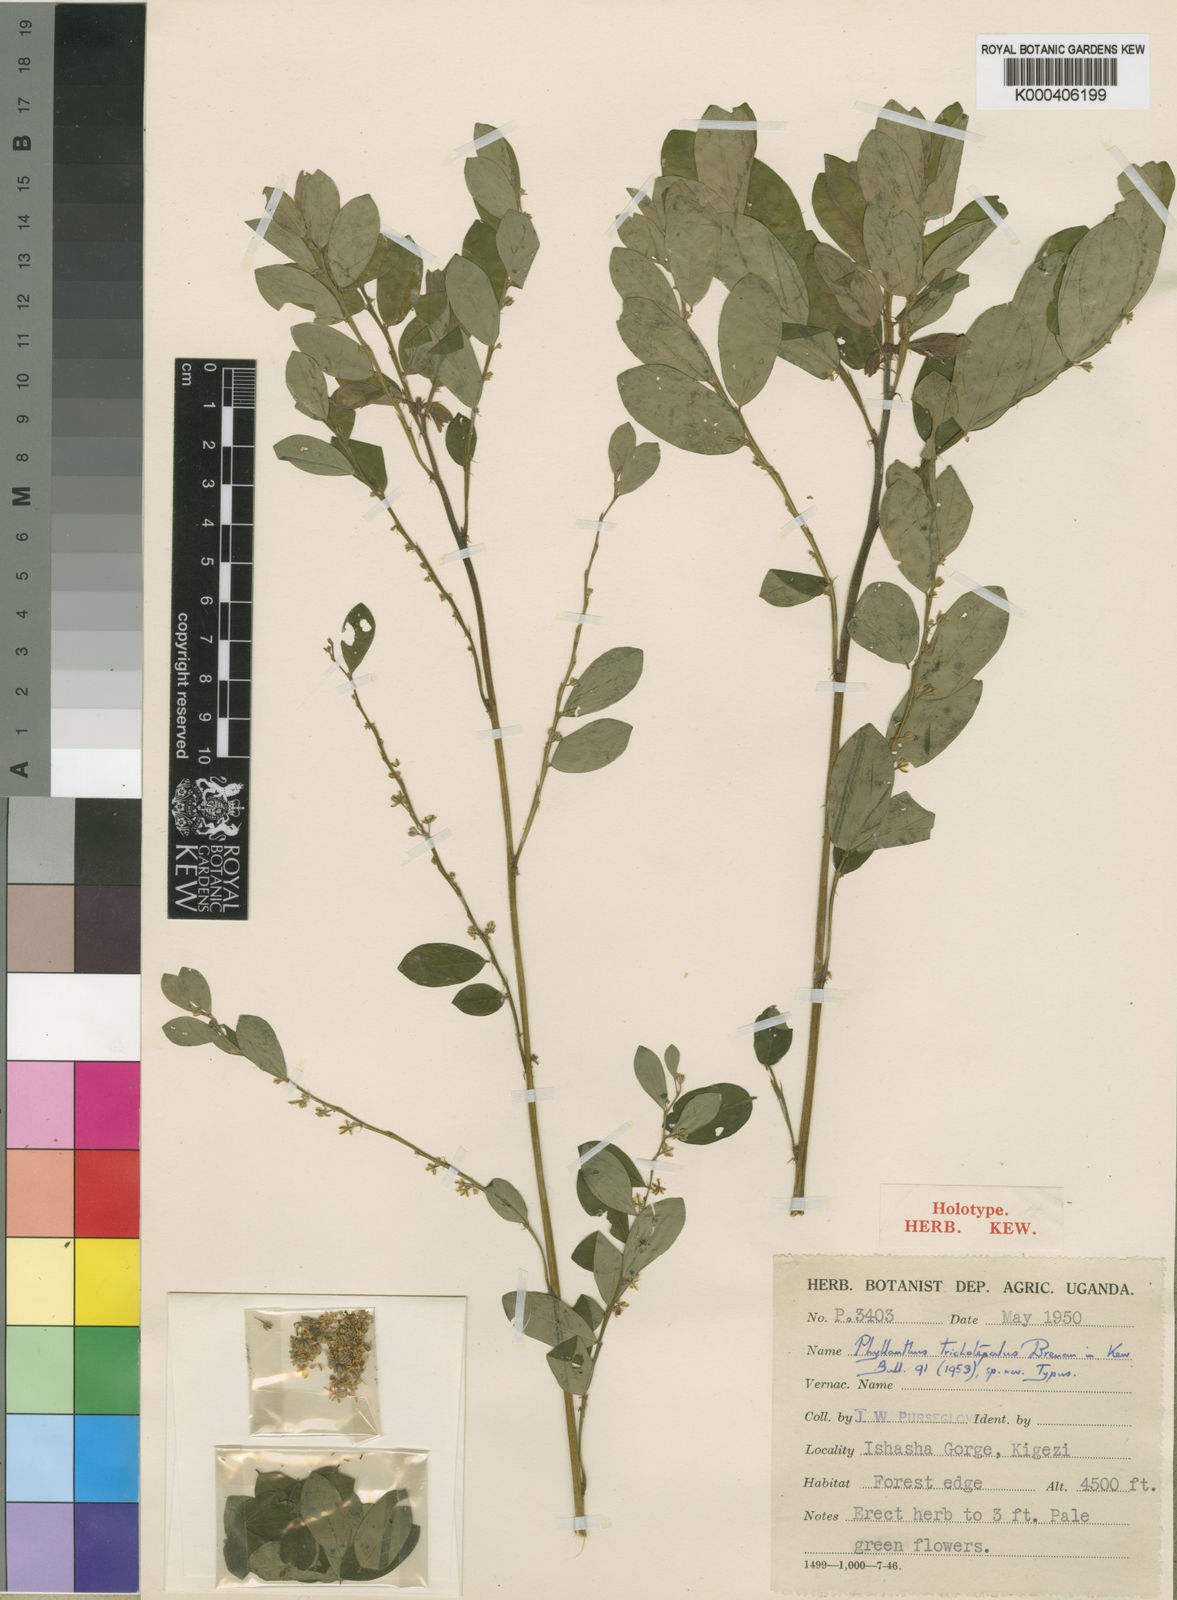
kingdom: Plantae
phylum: Tracheophyta
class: Magnoliopsida
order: Malpighiales
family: Phyllanthaceae
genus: Phyllanthus
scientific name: Phyllanthus trichotepalus
